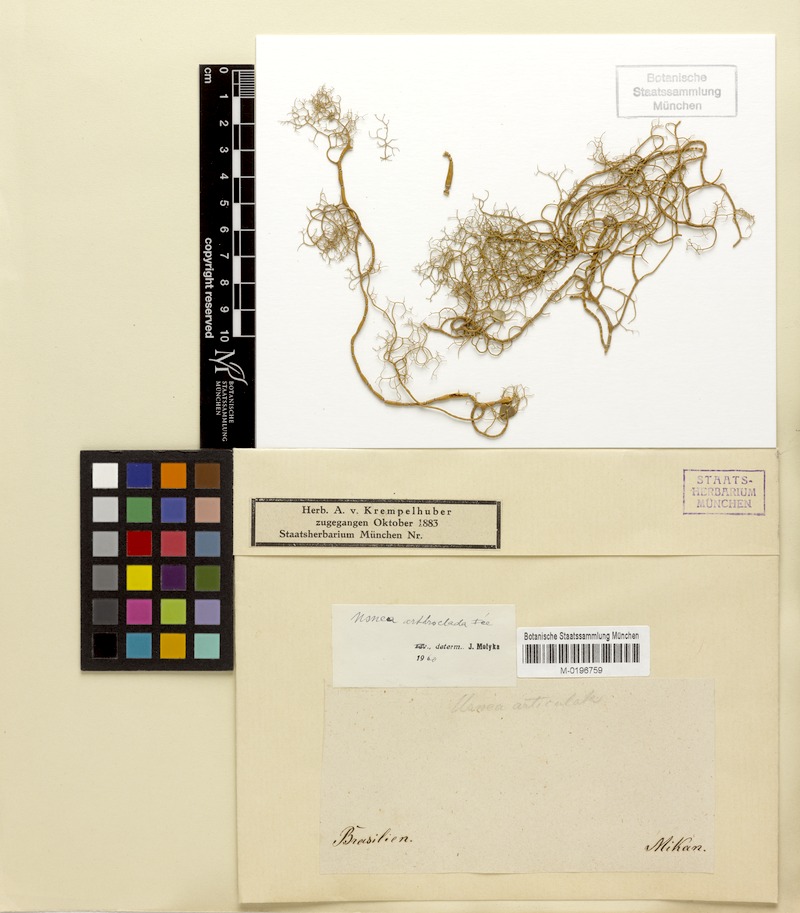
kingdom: Fungi
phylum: Ascomycota
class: Lecanoromycetes
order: Lecanorales
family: Parmeliaceae
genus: Usnea
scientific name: Usnea arthroclada
